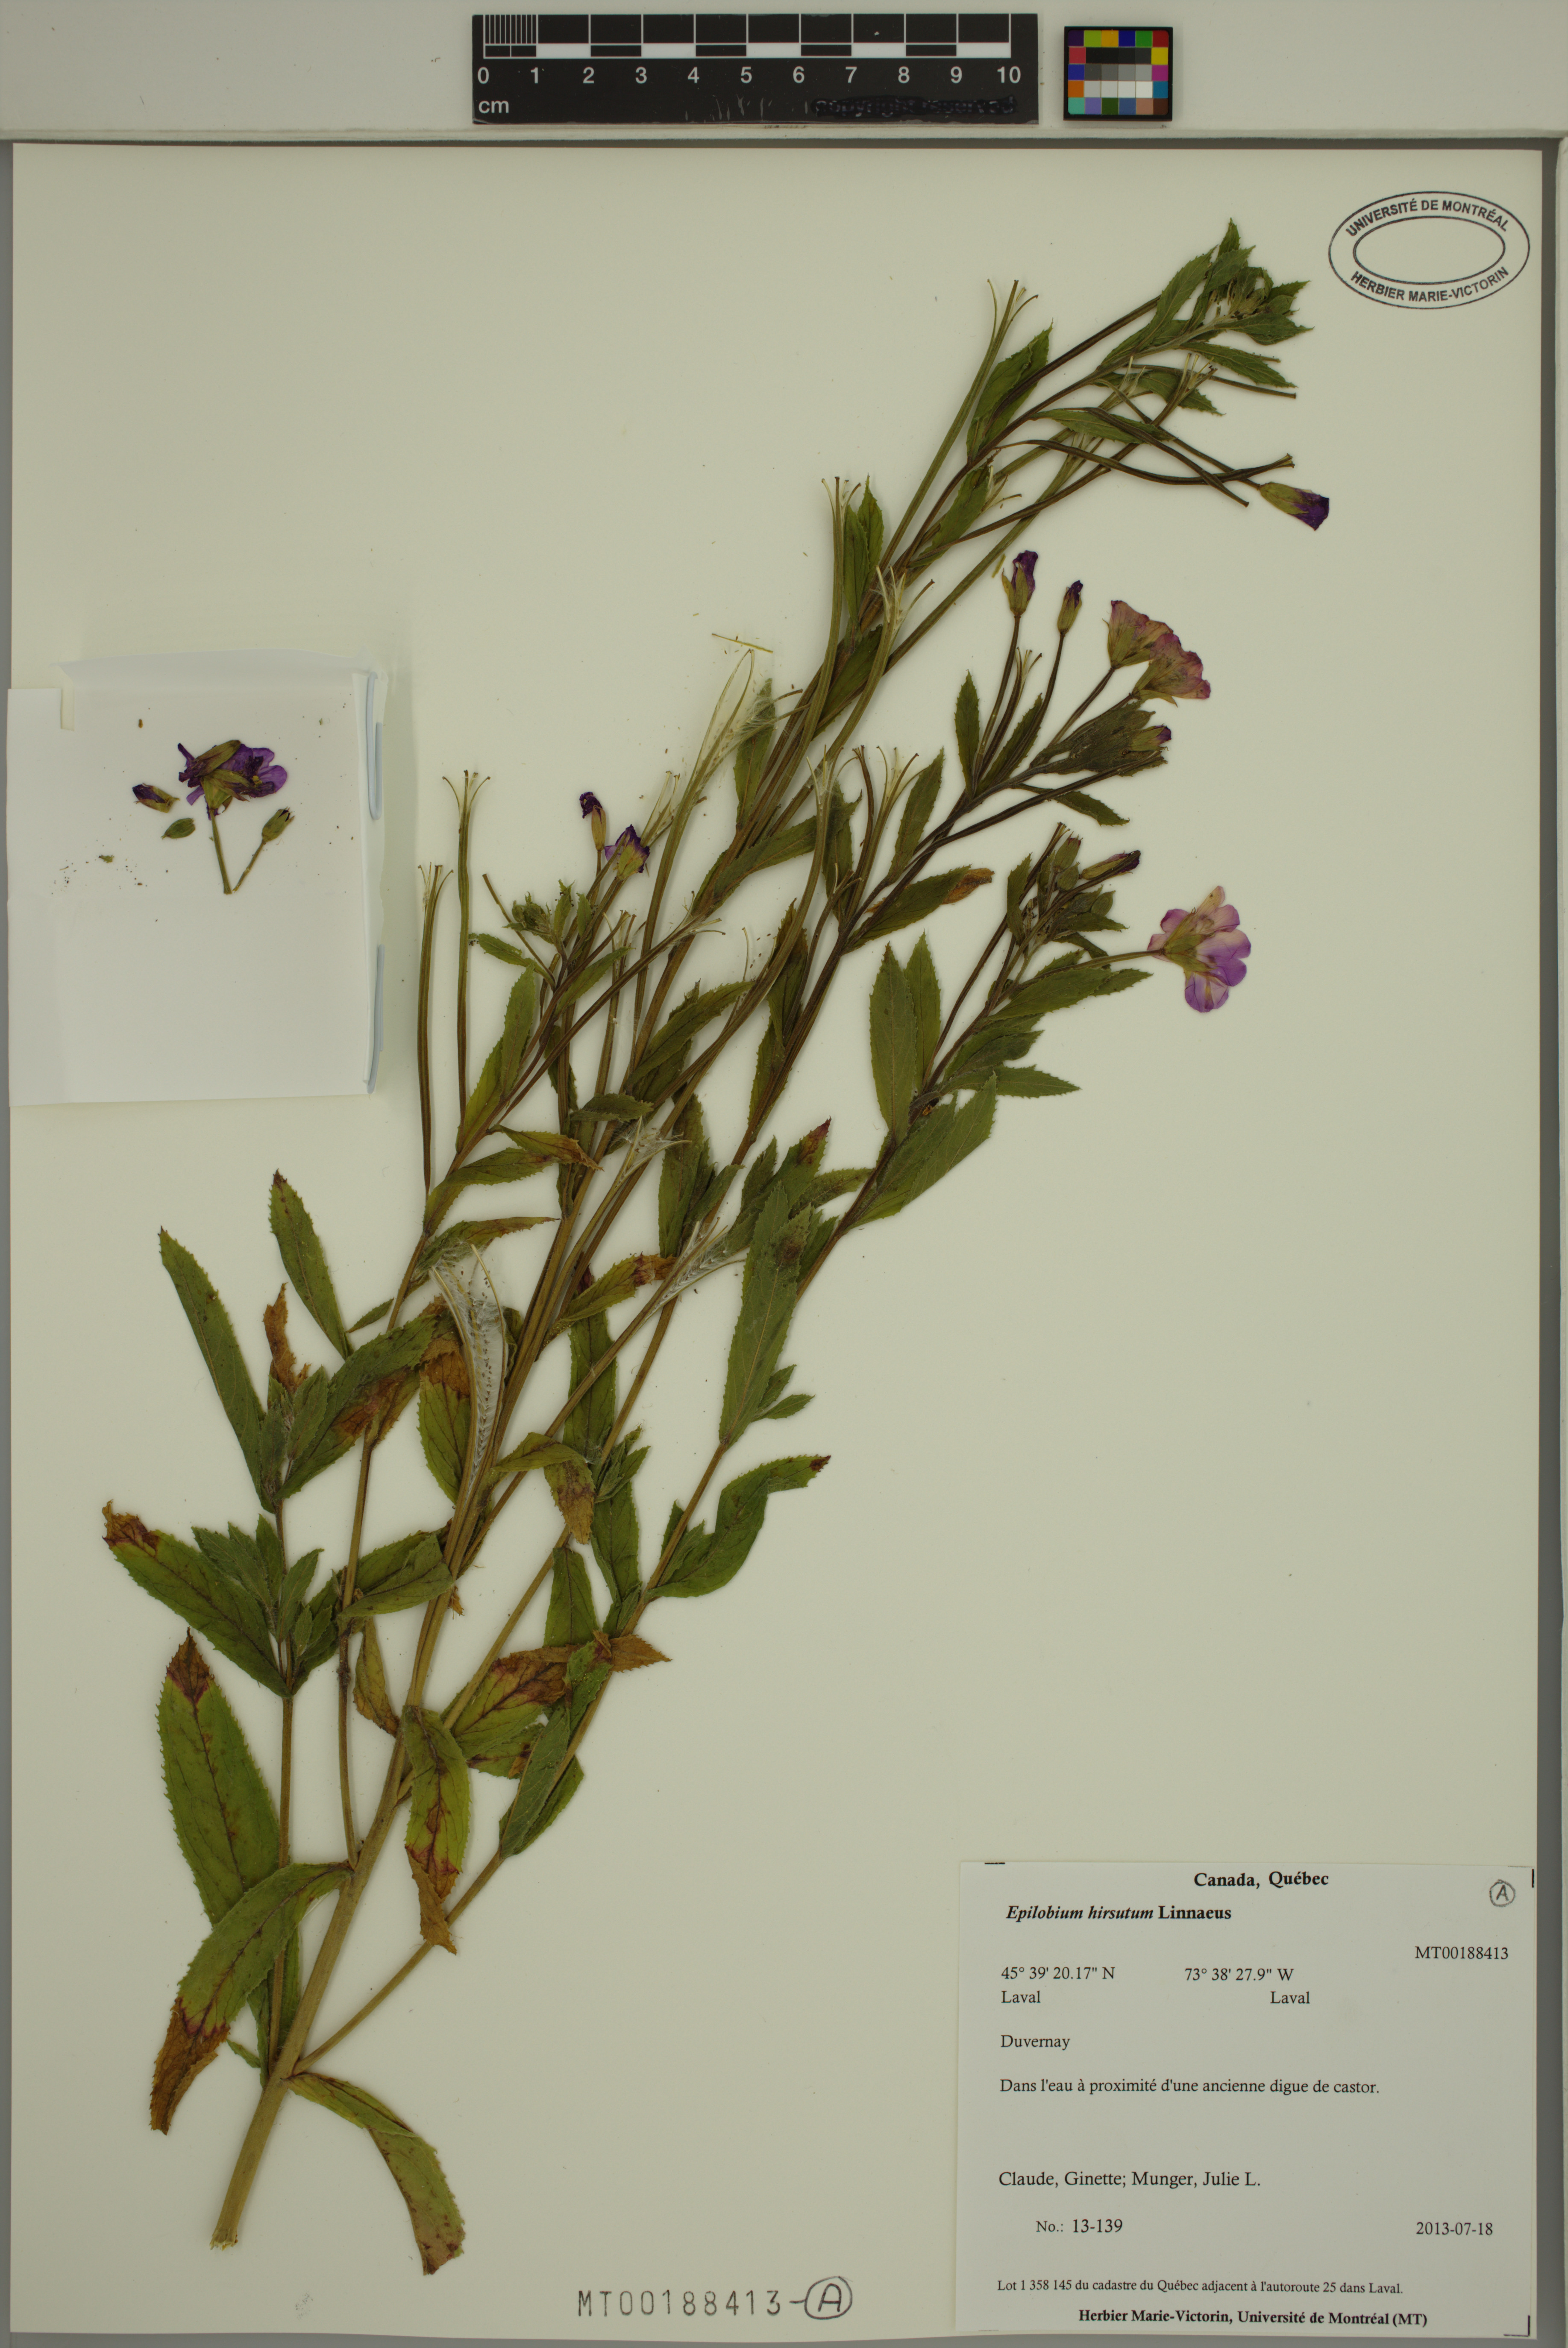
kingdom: Plantae
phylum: Tracheophyta
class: Magnoliopsida
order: Myrtales
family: Onagraceae
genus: Epilobium
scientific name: Epilobium hirsutum
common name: Great willowherb
